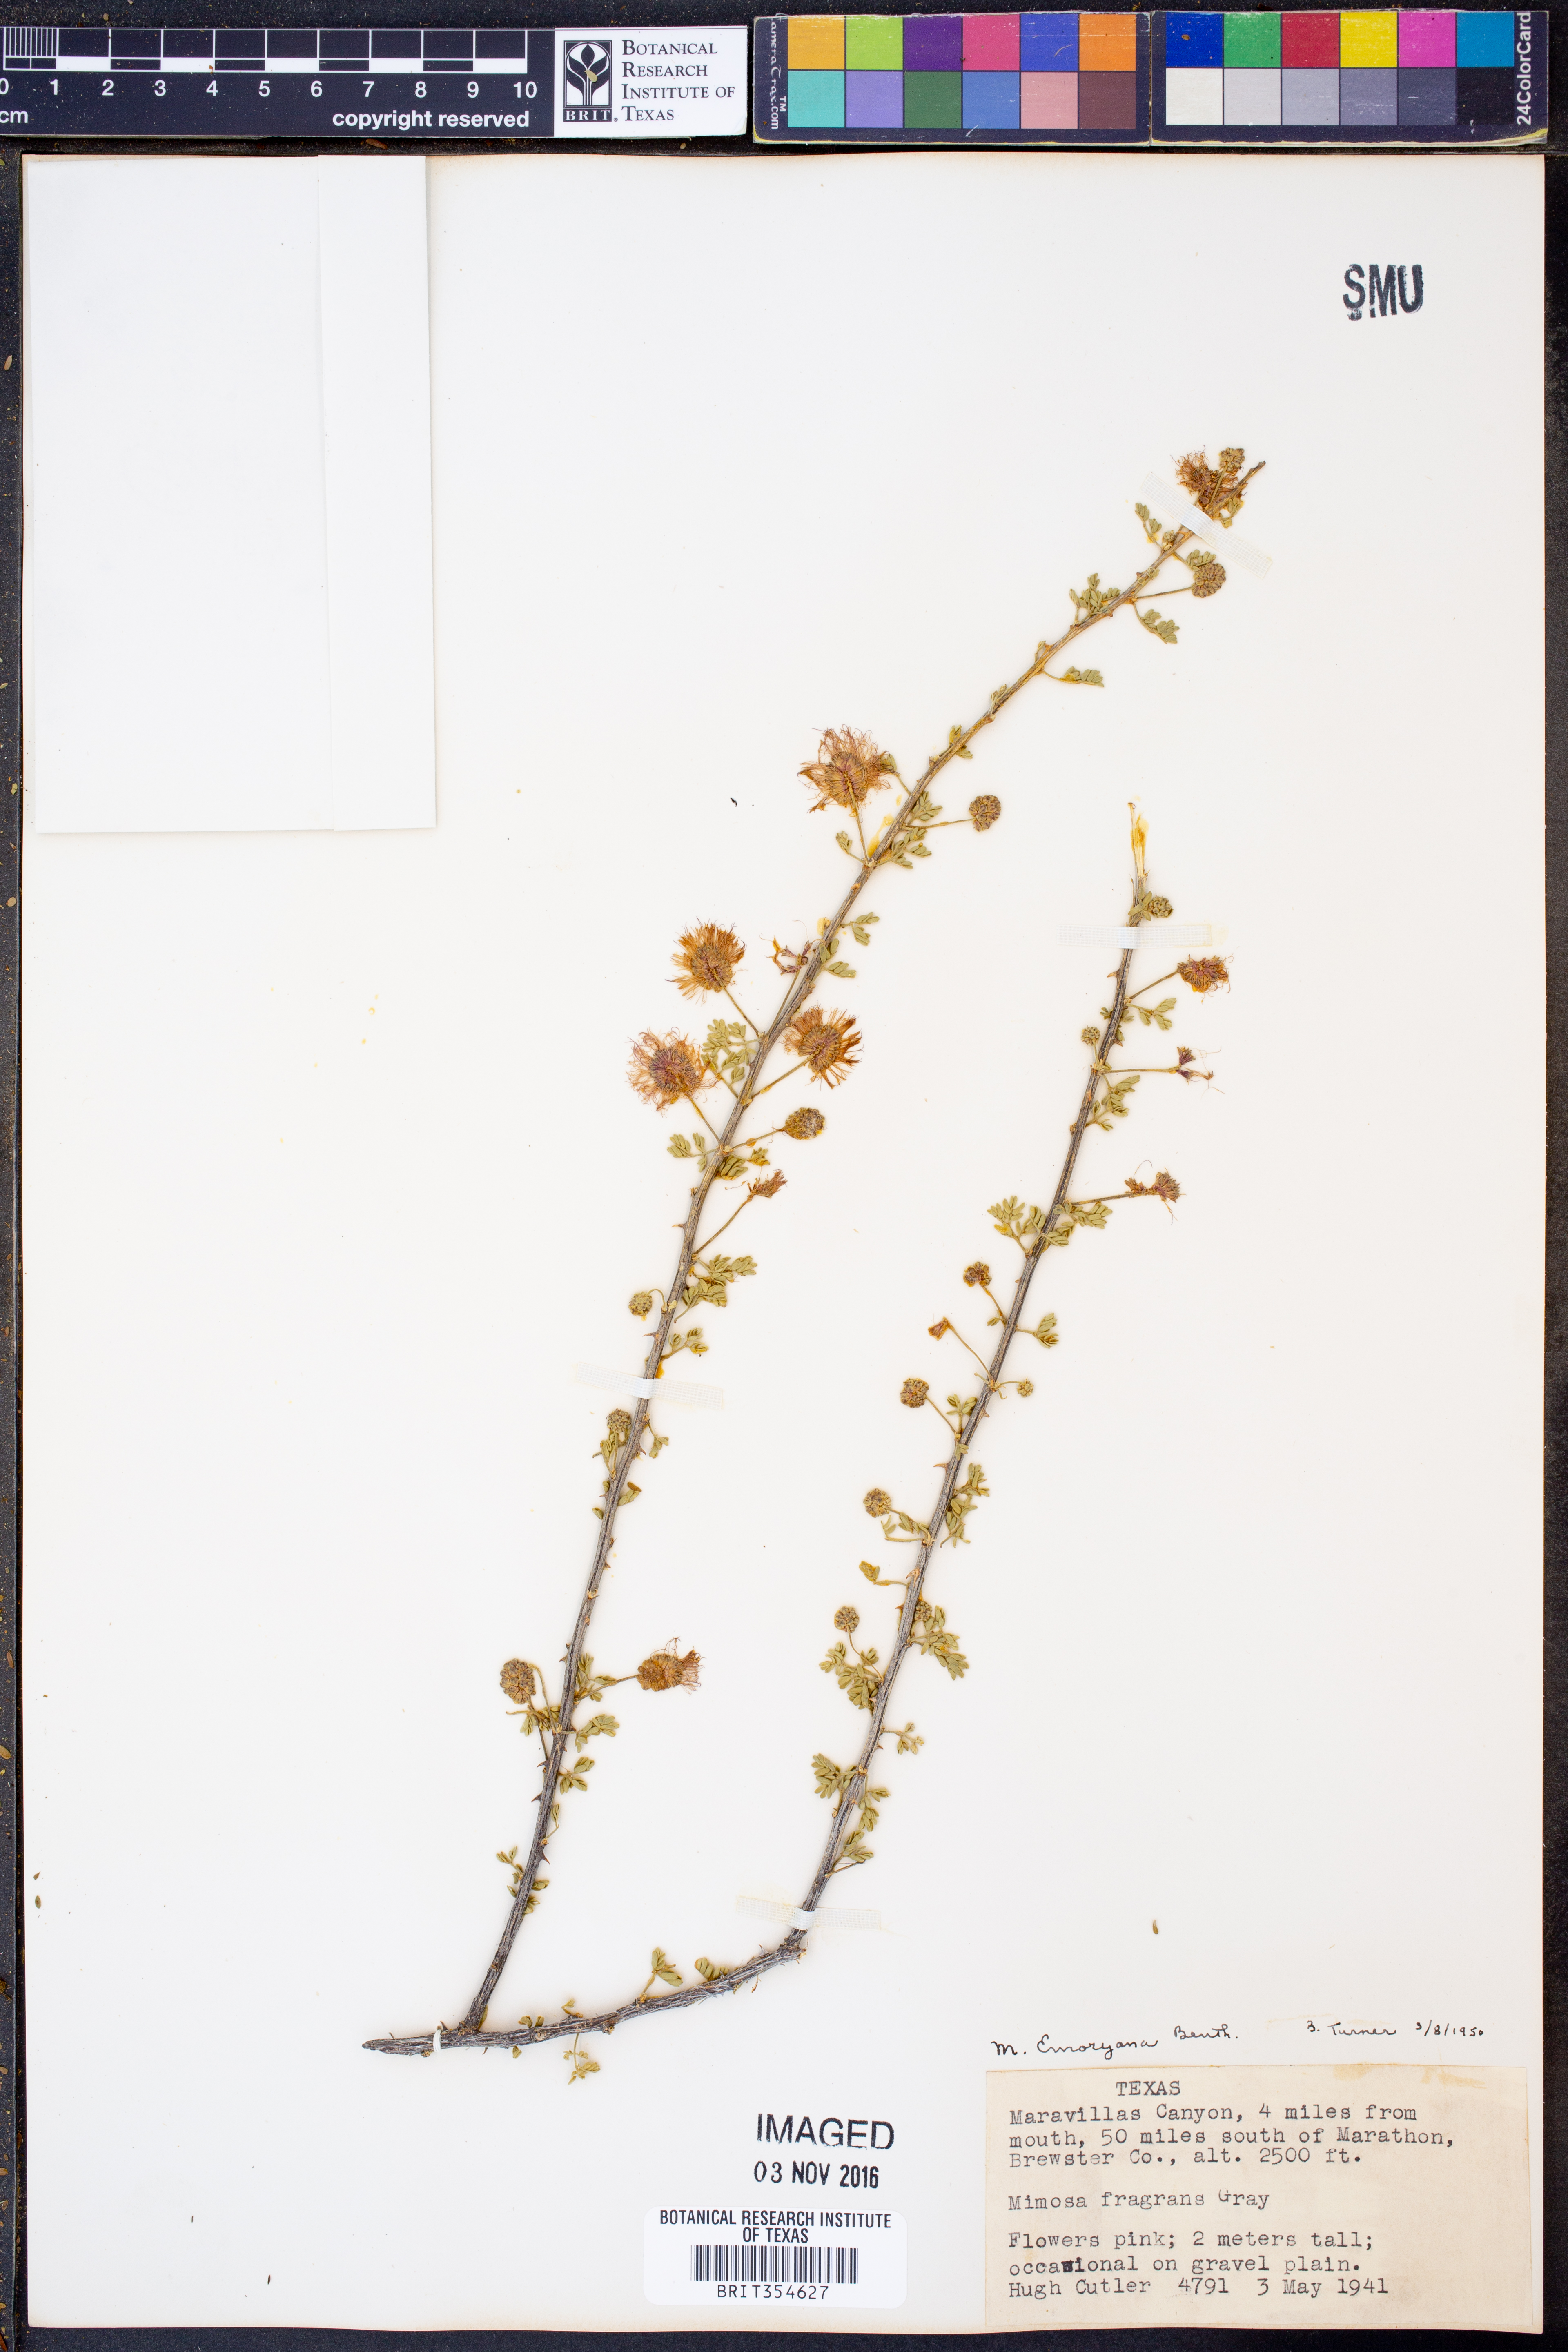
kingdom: Plantae
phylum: Tracheophyta
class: Magnoliopsida
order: Fabales
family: Fabaceae
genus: Mimosa
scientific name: Mimosa emoryana
